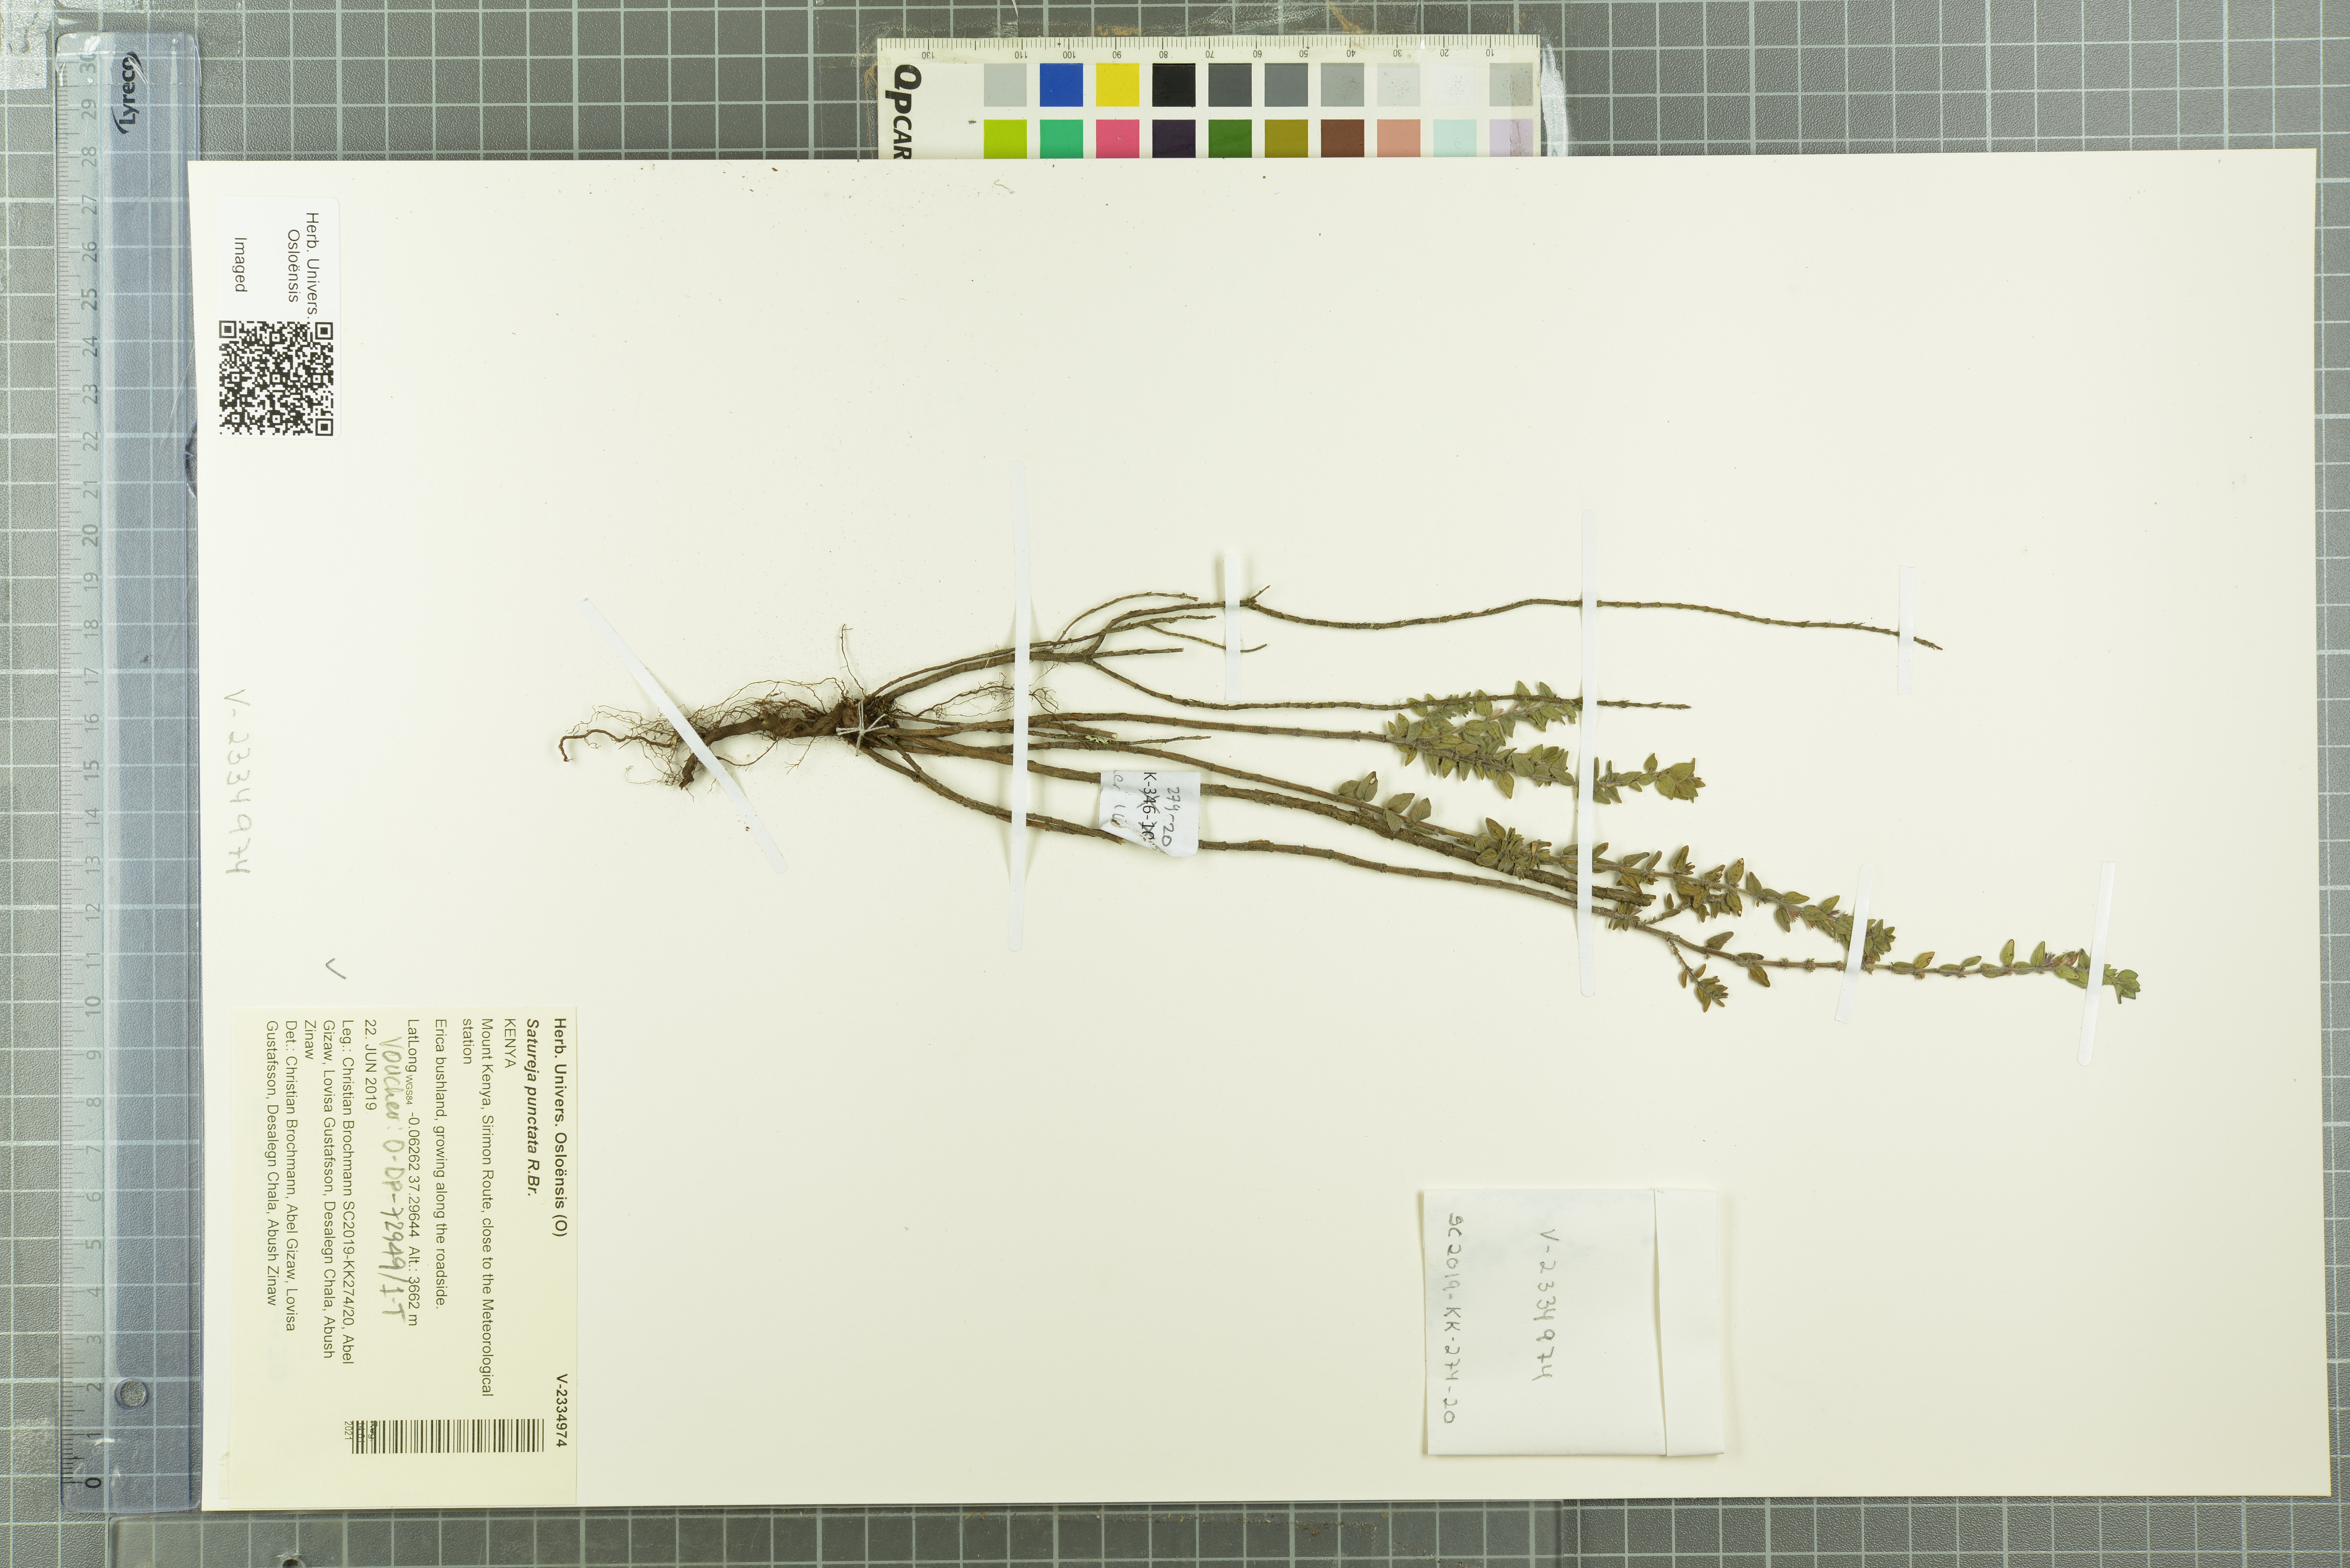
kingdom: Plantae
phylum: Tracheophyta
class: Magnoliopsida
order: Lamiales
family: Lamiaceae
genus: Micromeria
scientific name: Micromeria imbricata
